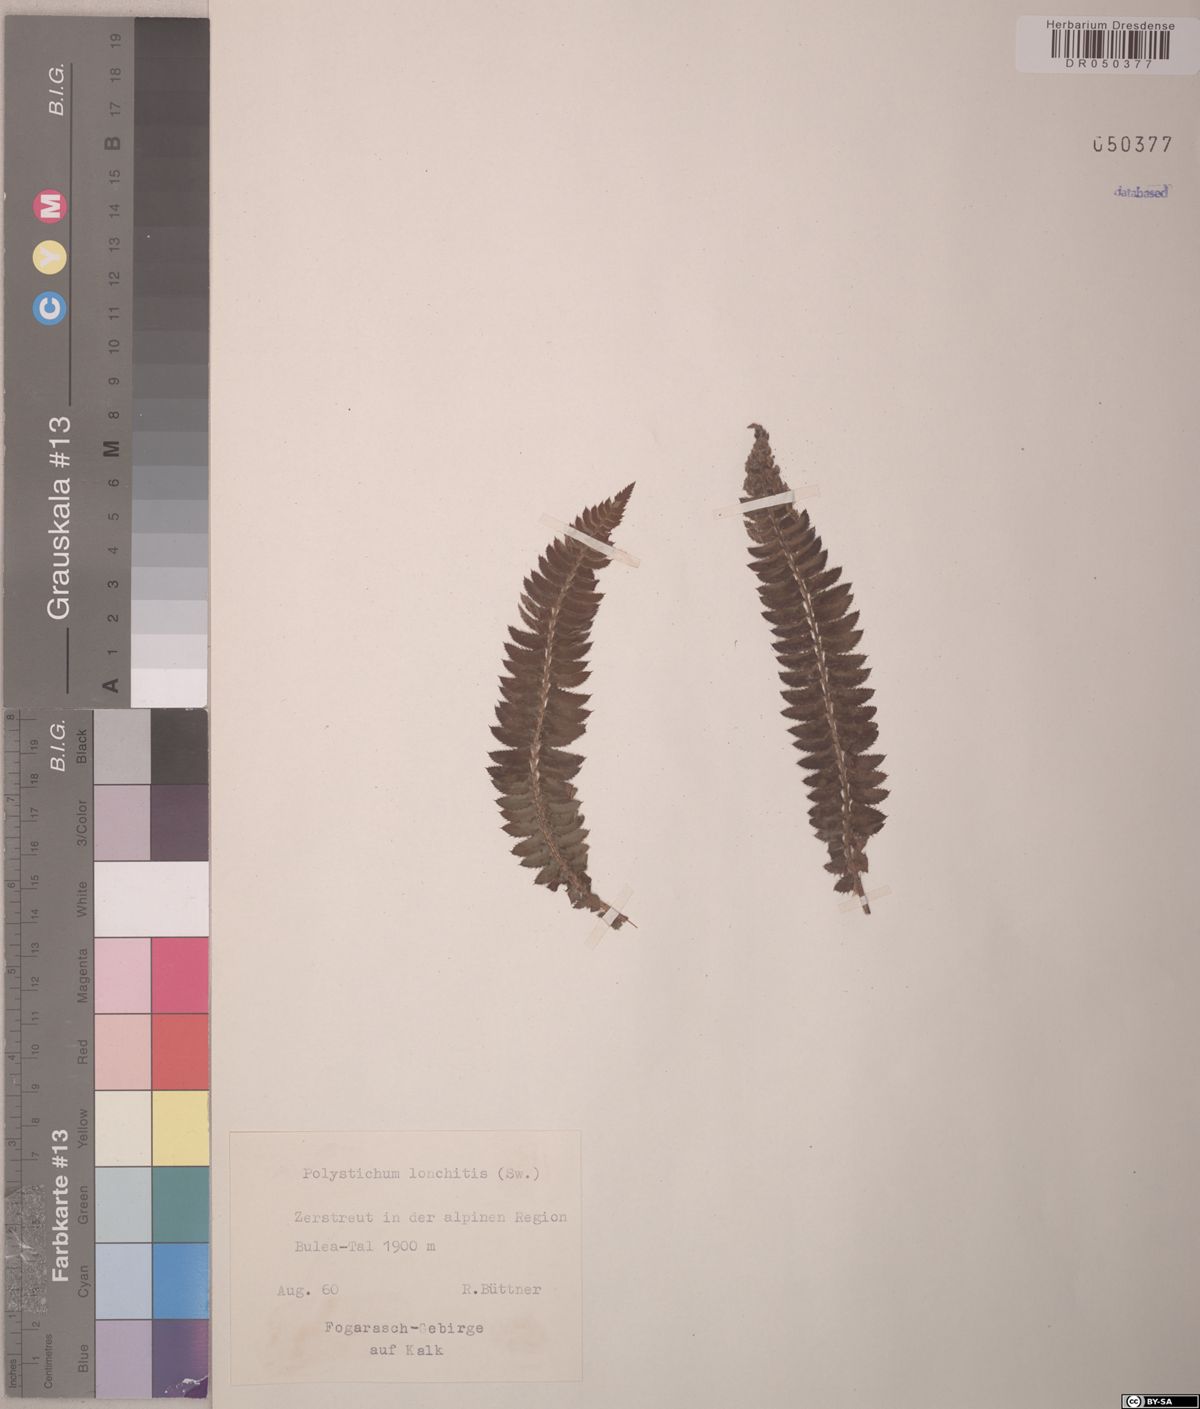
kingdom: Plantae
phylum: Tracheophyta
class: Polypodiopsida
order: Polypodiales
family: Dryopteridaceae
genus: Polystichum
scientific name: Polystichum lonchitis
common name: Holly fern
